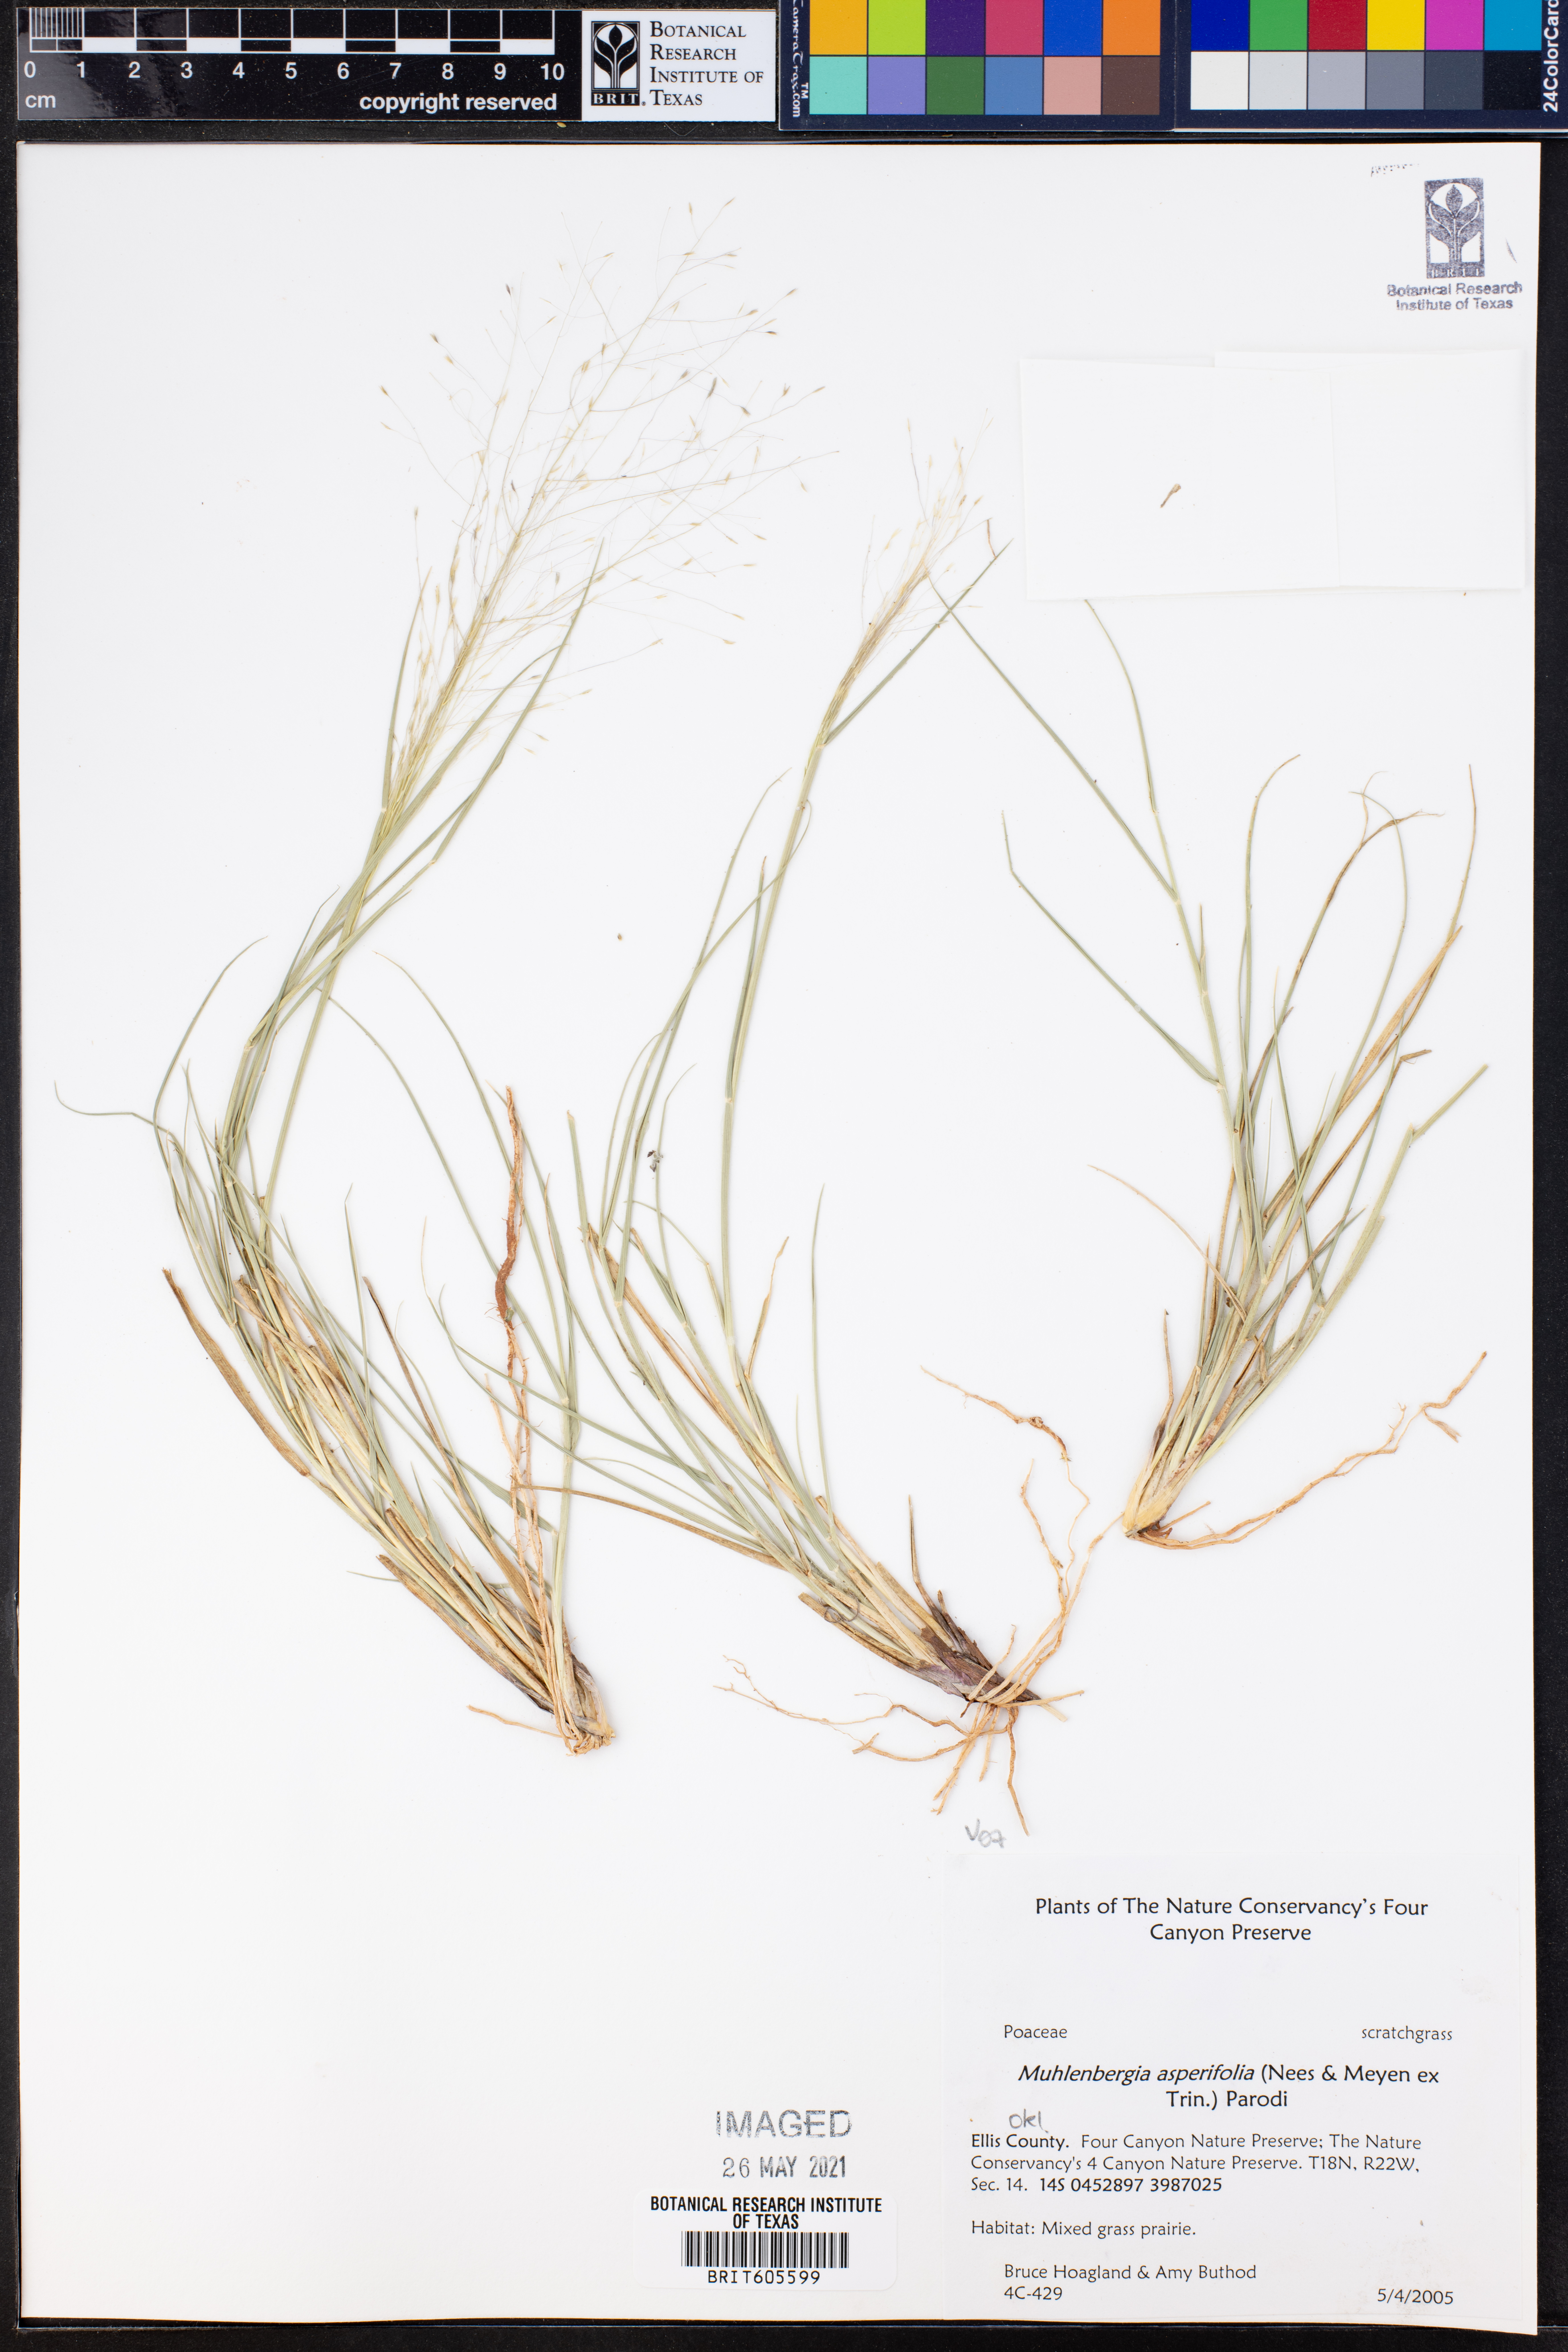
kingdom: Plantae
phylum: Tracheophyta
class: Liliopsida
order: Poales
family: Poaceae
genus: Muhlenbergia
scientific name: Muhlenbergia asperifolia
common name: Alkali muhly
